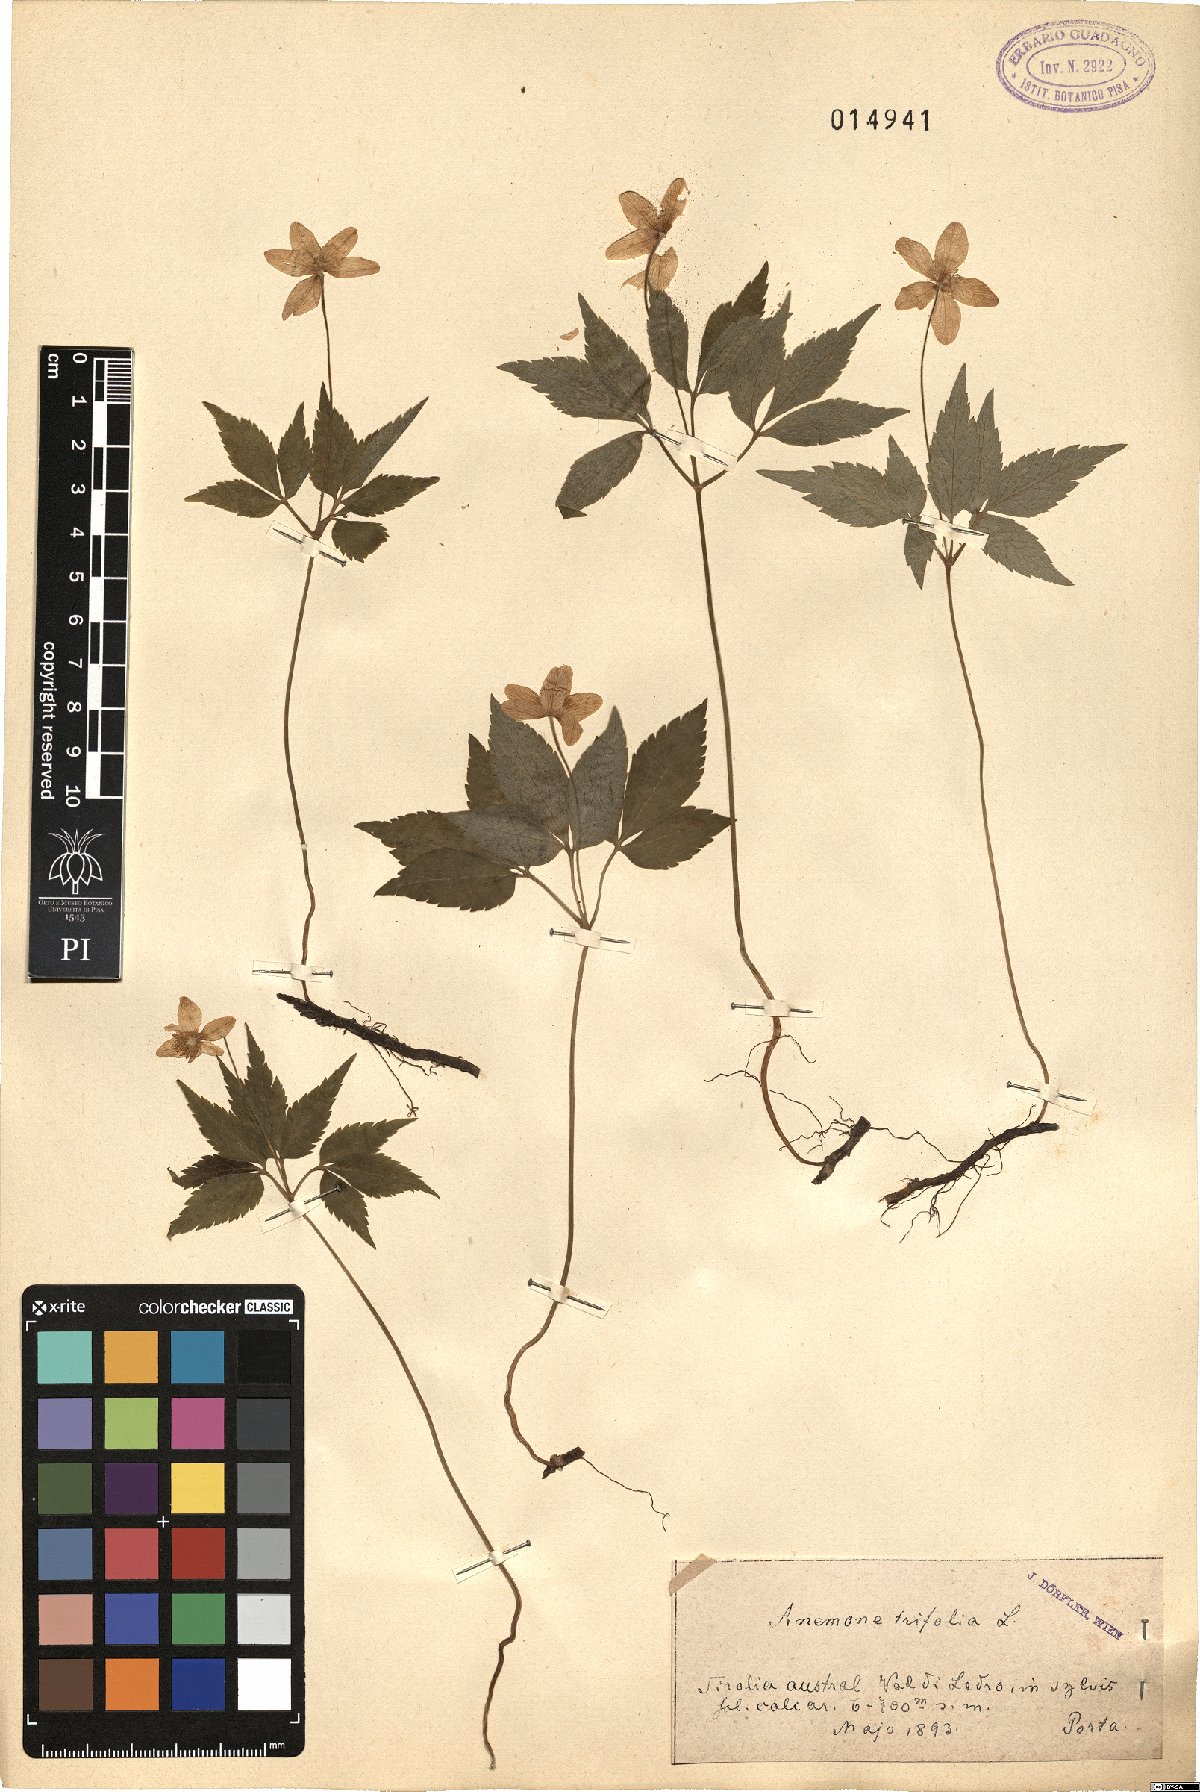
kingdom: Plantae
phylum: Tracheophyta
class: Magnoliopsida
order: Ranunculales
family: Ranunculaceae
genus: Anemone
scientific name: Anemone trifolia
